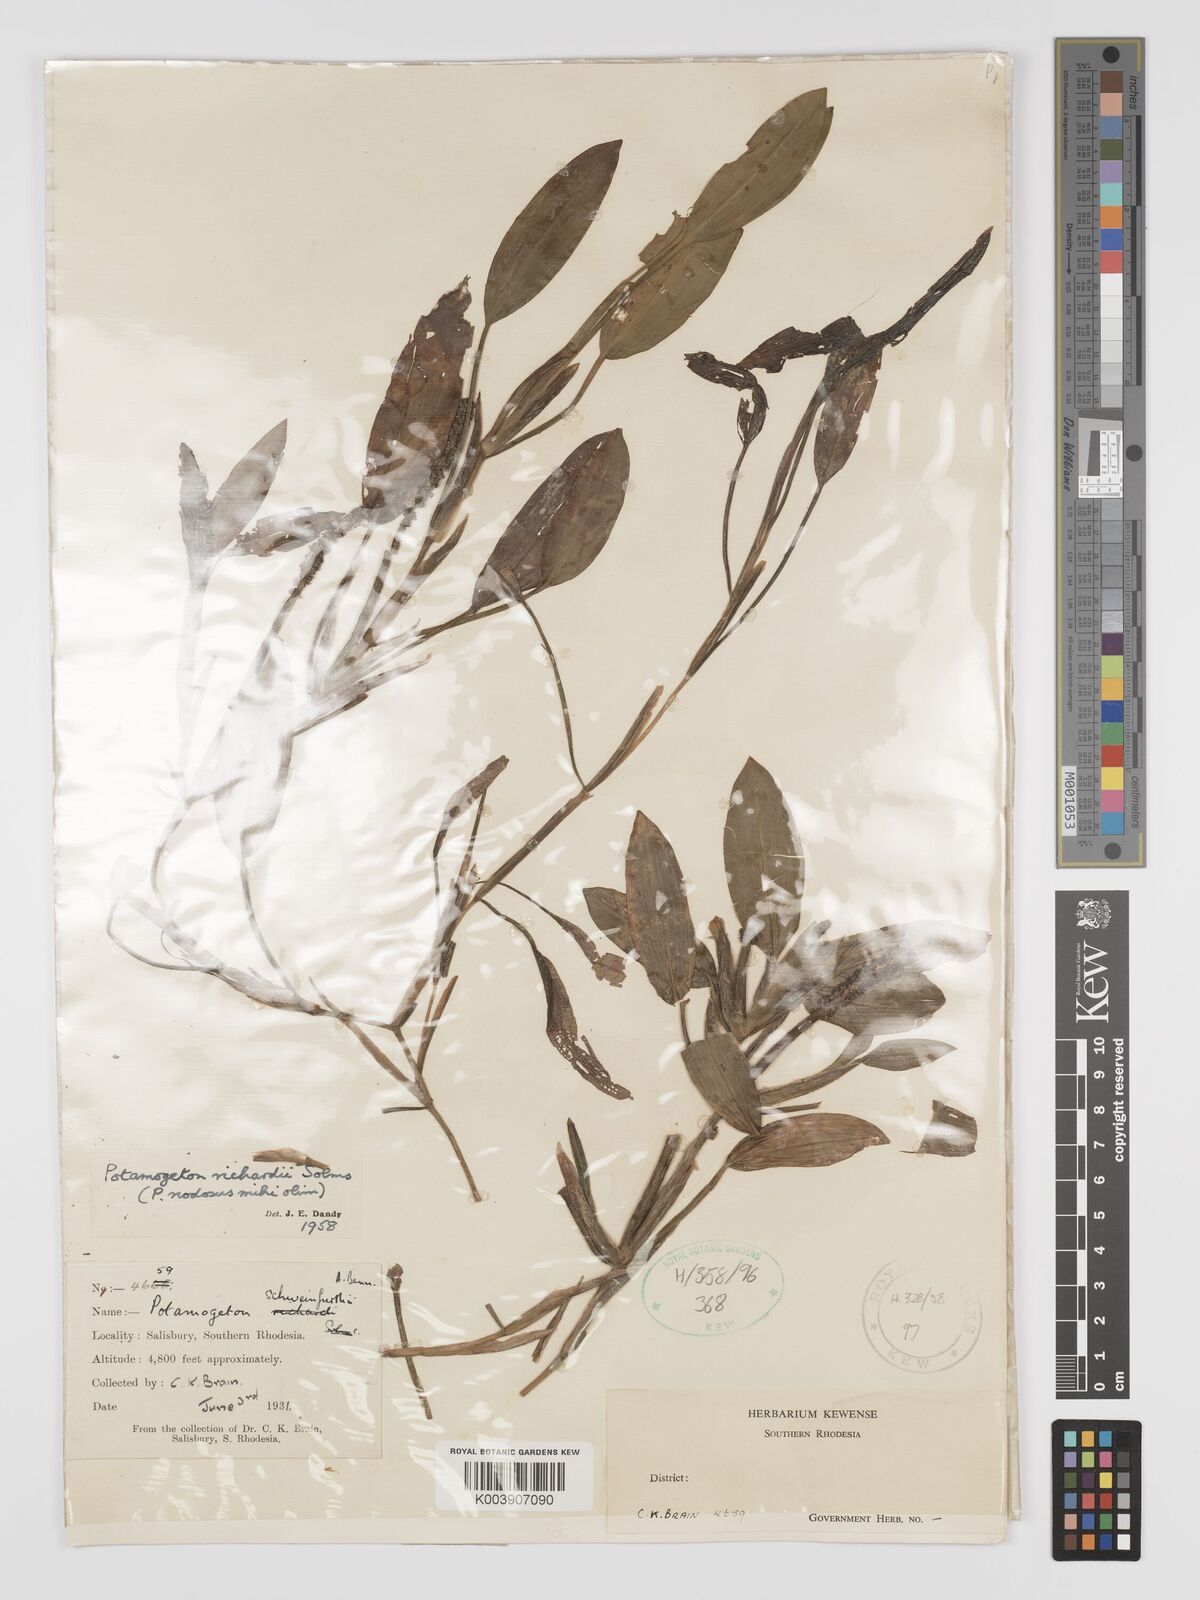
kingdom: Plantae
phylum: Tracheophyta
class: Liliopsida
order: Alismatales
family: Potamogetonaceae
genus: Potamogeton
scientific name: Potamogeton nodosus
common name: Loddon pondweed
